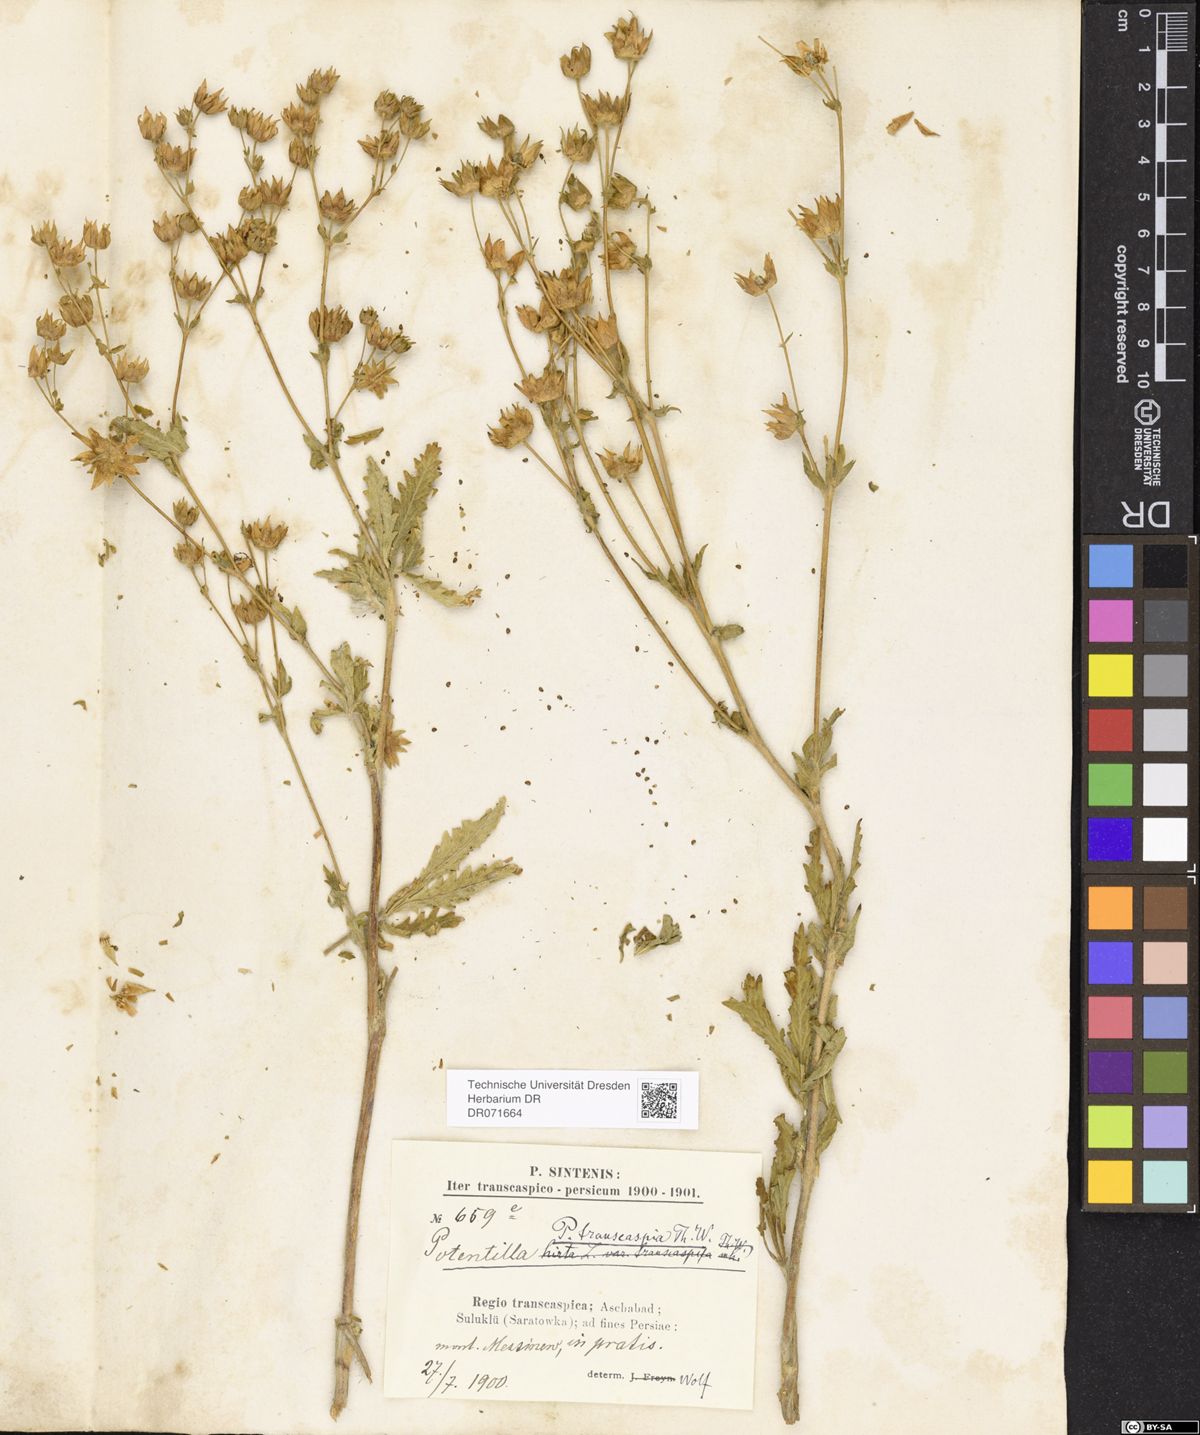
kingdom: Plantae
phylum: Tracheophyta
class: Magnoliopsida
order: Rosales
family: Rosaceae
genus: Potentilla
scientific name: Potentilla pedata
